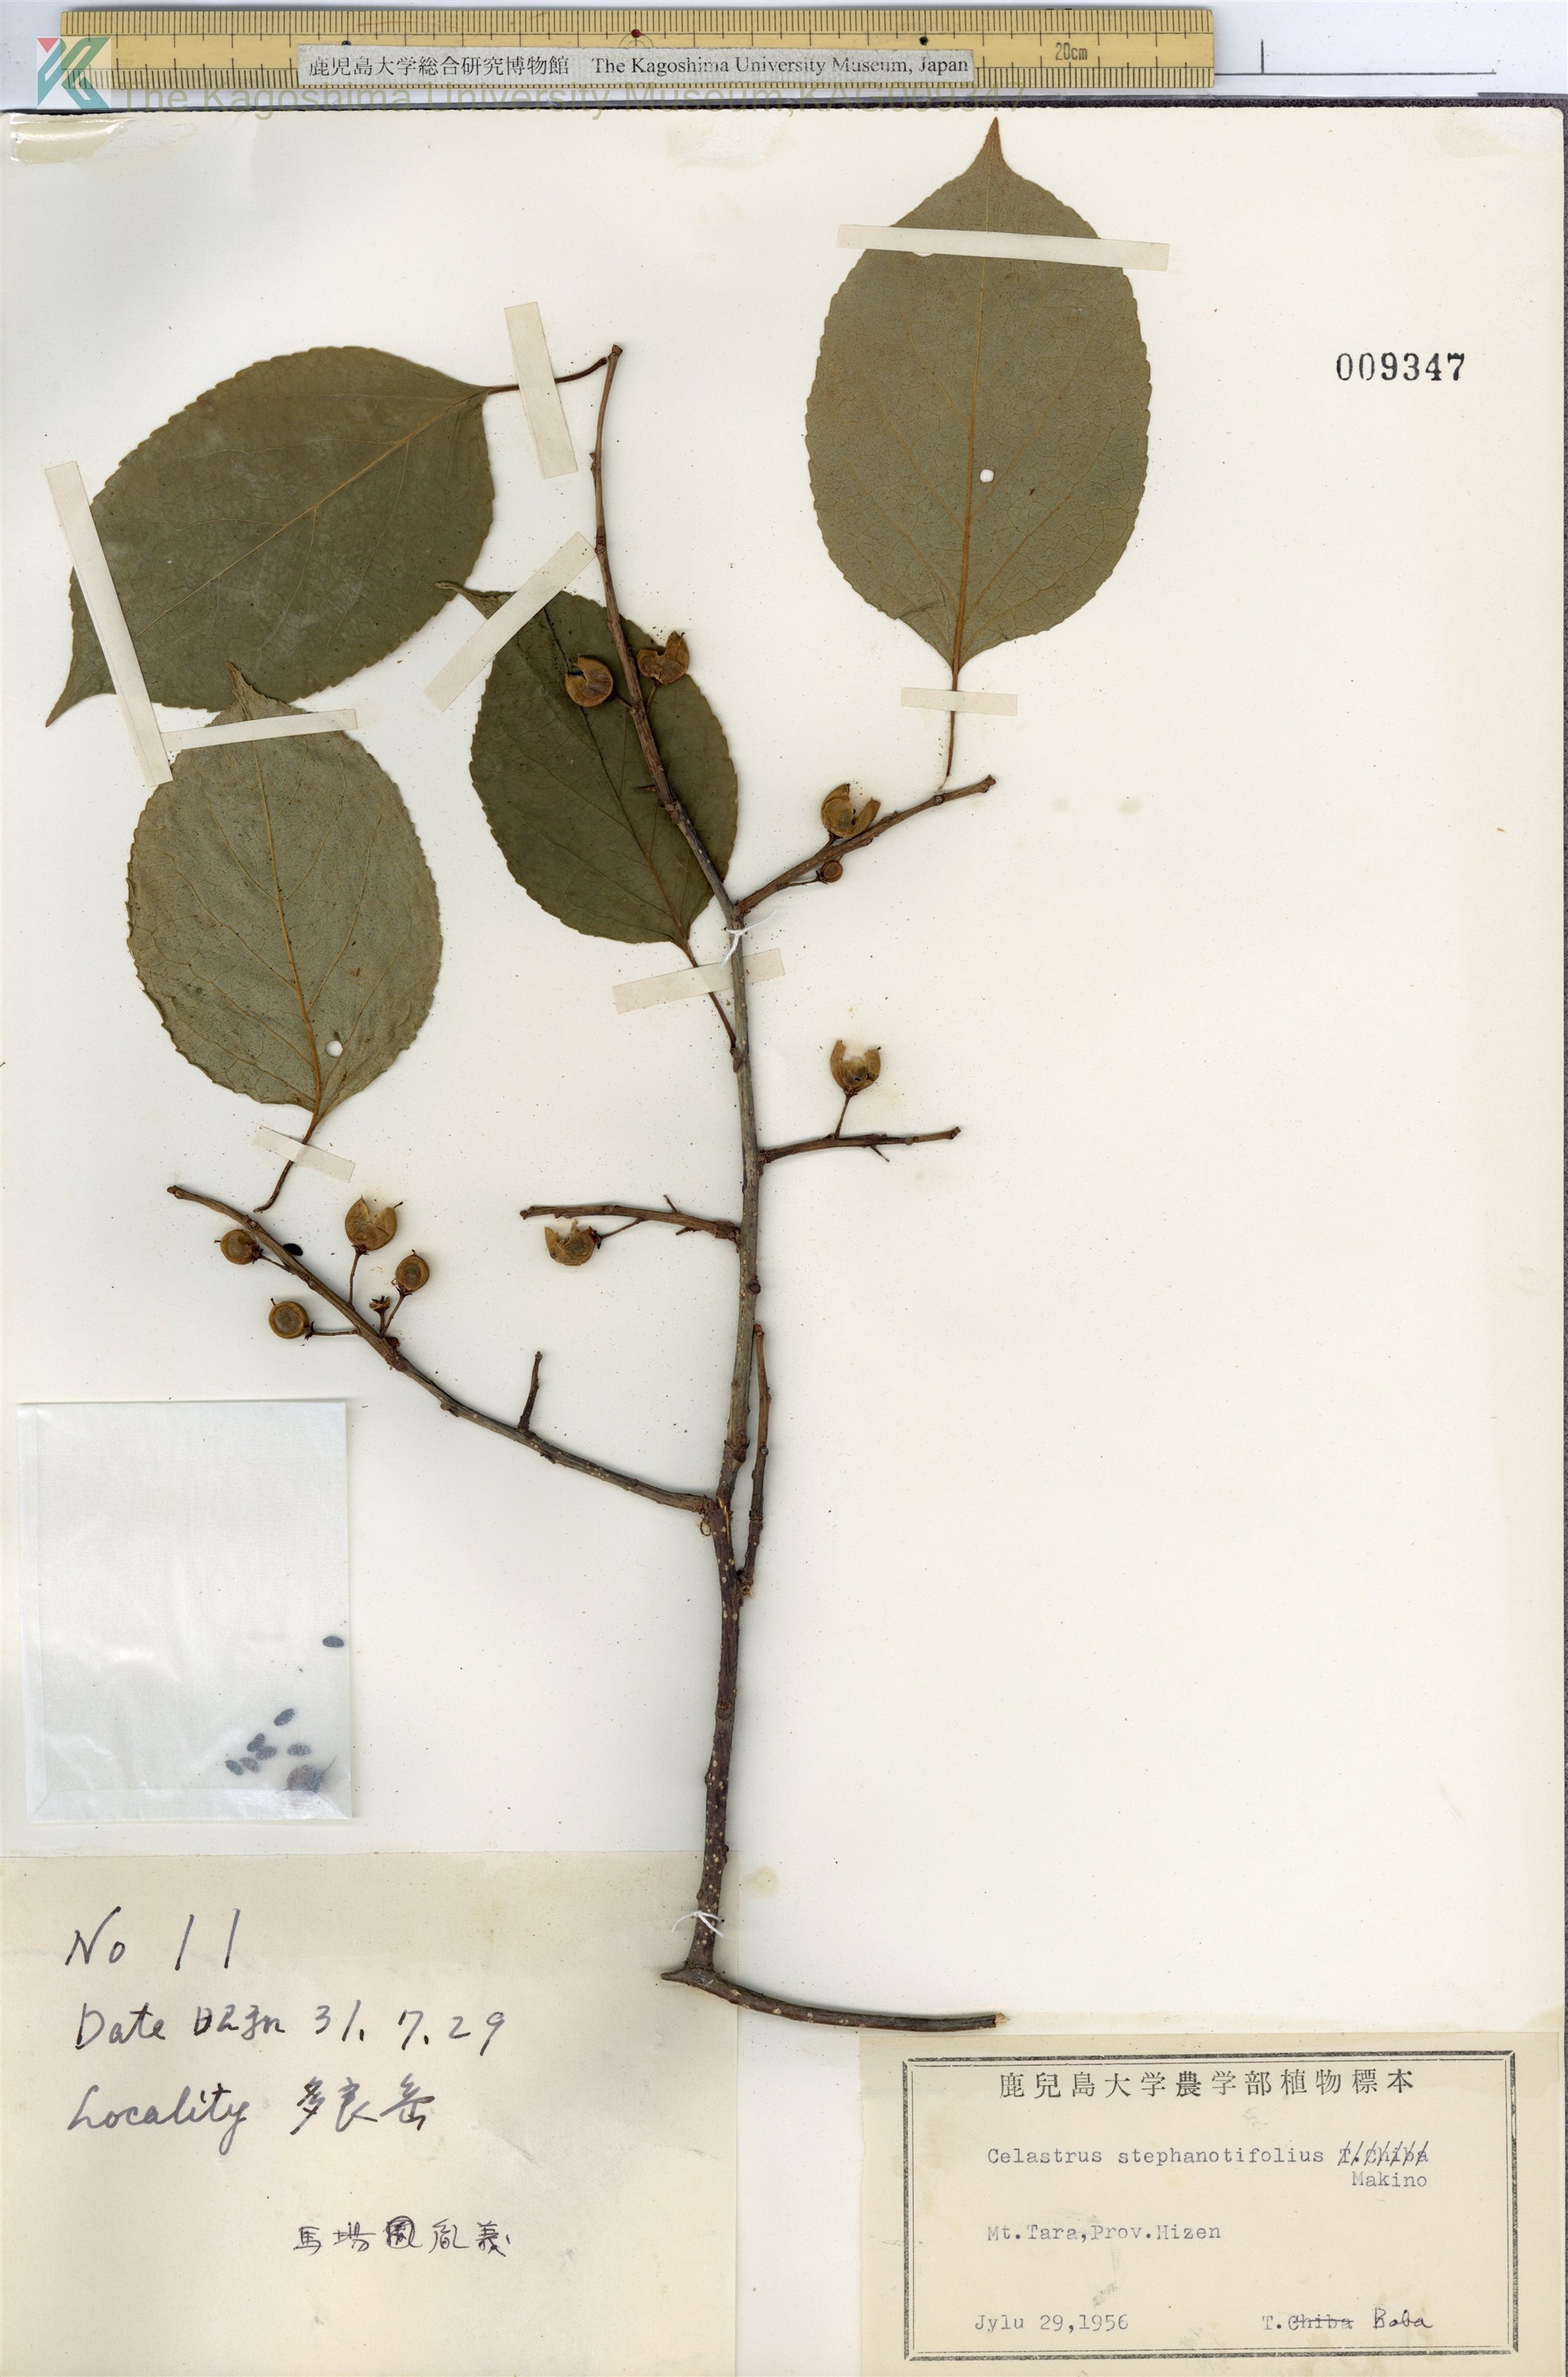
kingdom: Plantae
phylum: Tracheophyta
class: Magnoliopsida
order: Celastrales
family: Celastraceae
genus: Celastrus
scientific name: Celastrus stephanotifolius
